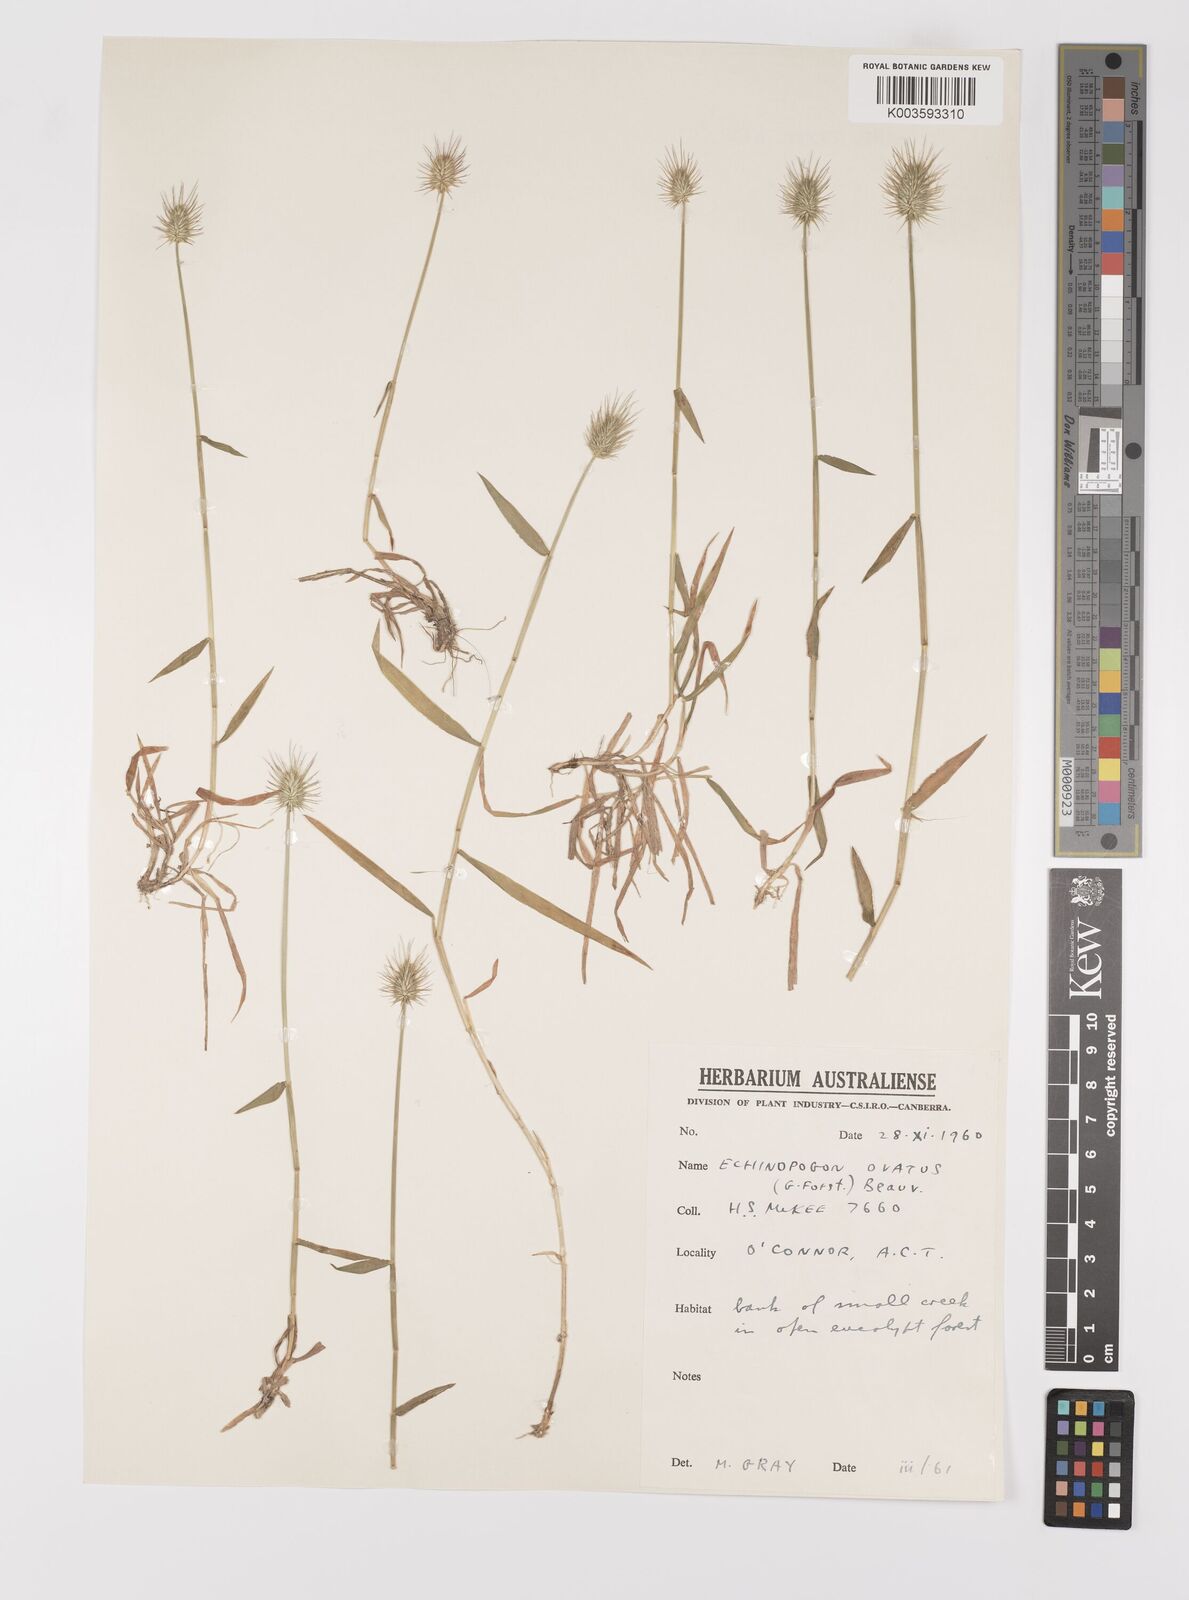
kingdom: Plantae
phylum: Tracheophyta
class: Liliopsida
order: Poales
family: Poaceae
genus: Echinopogon
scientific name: Echinopogon ovatus
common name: Hedgehog-grass
